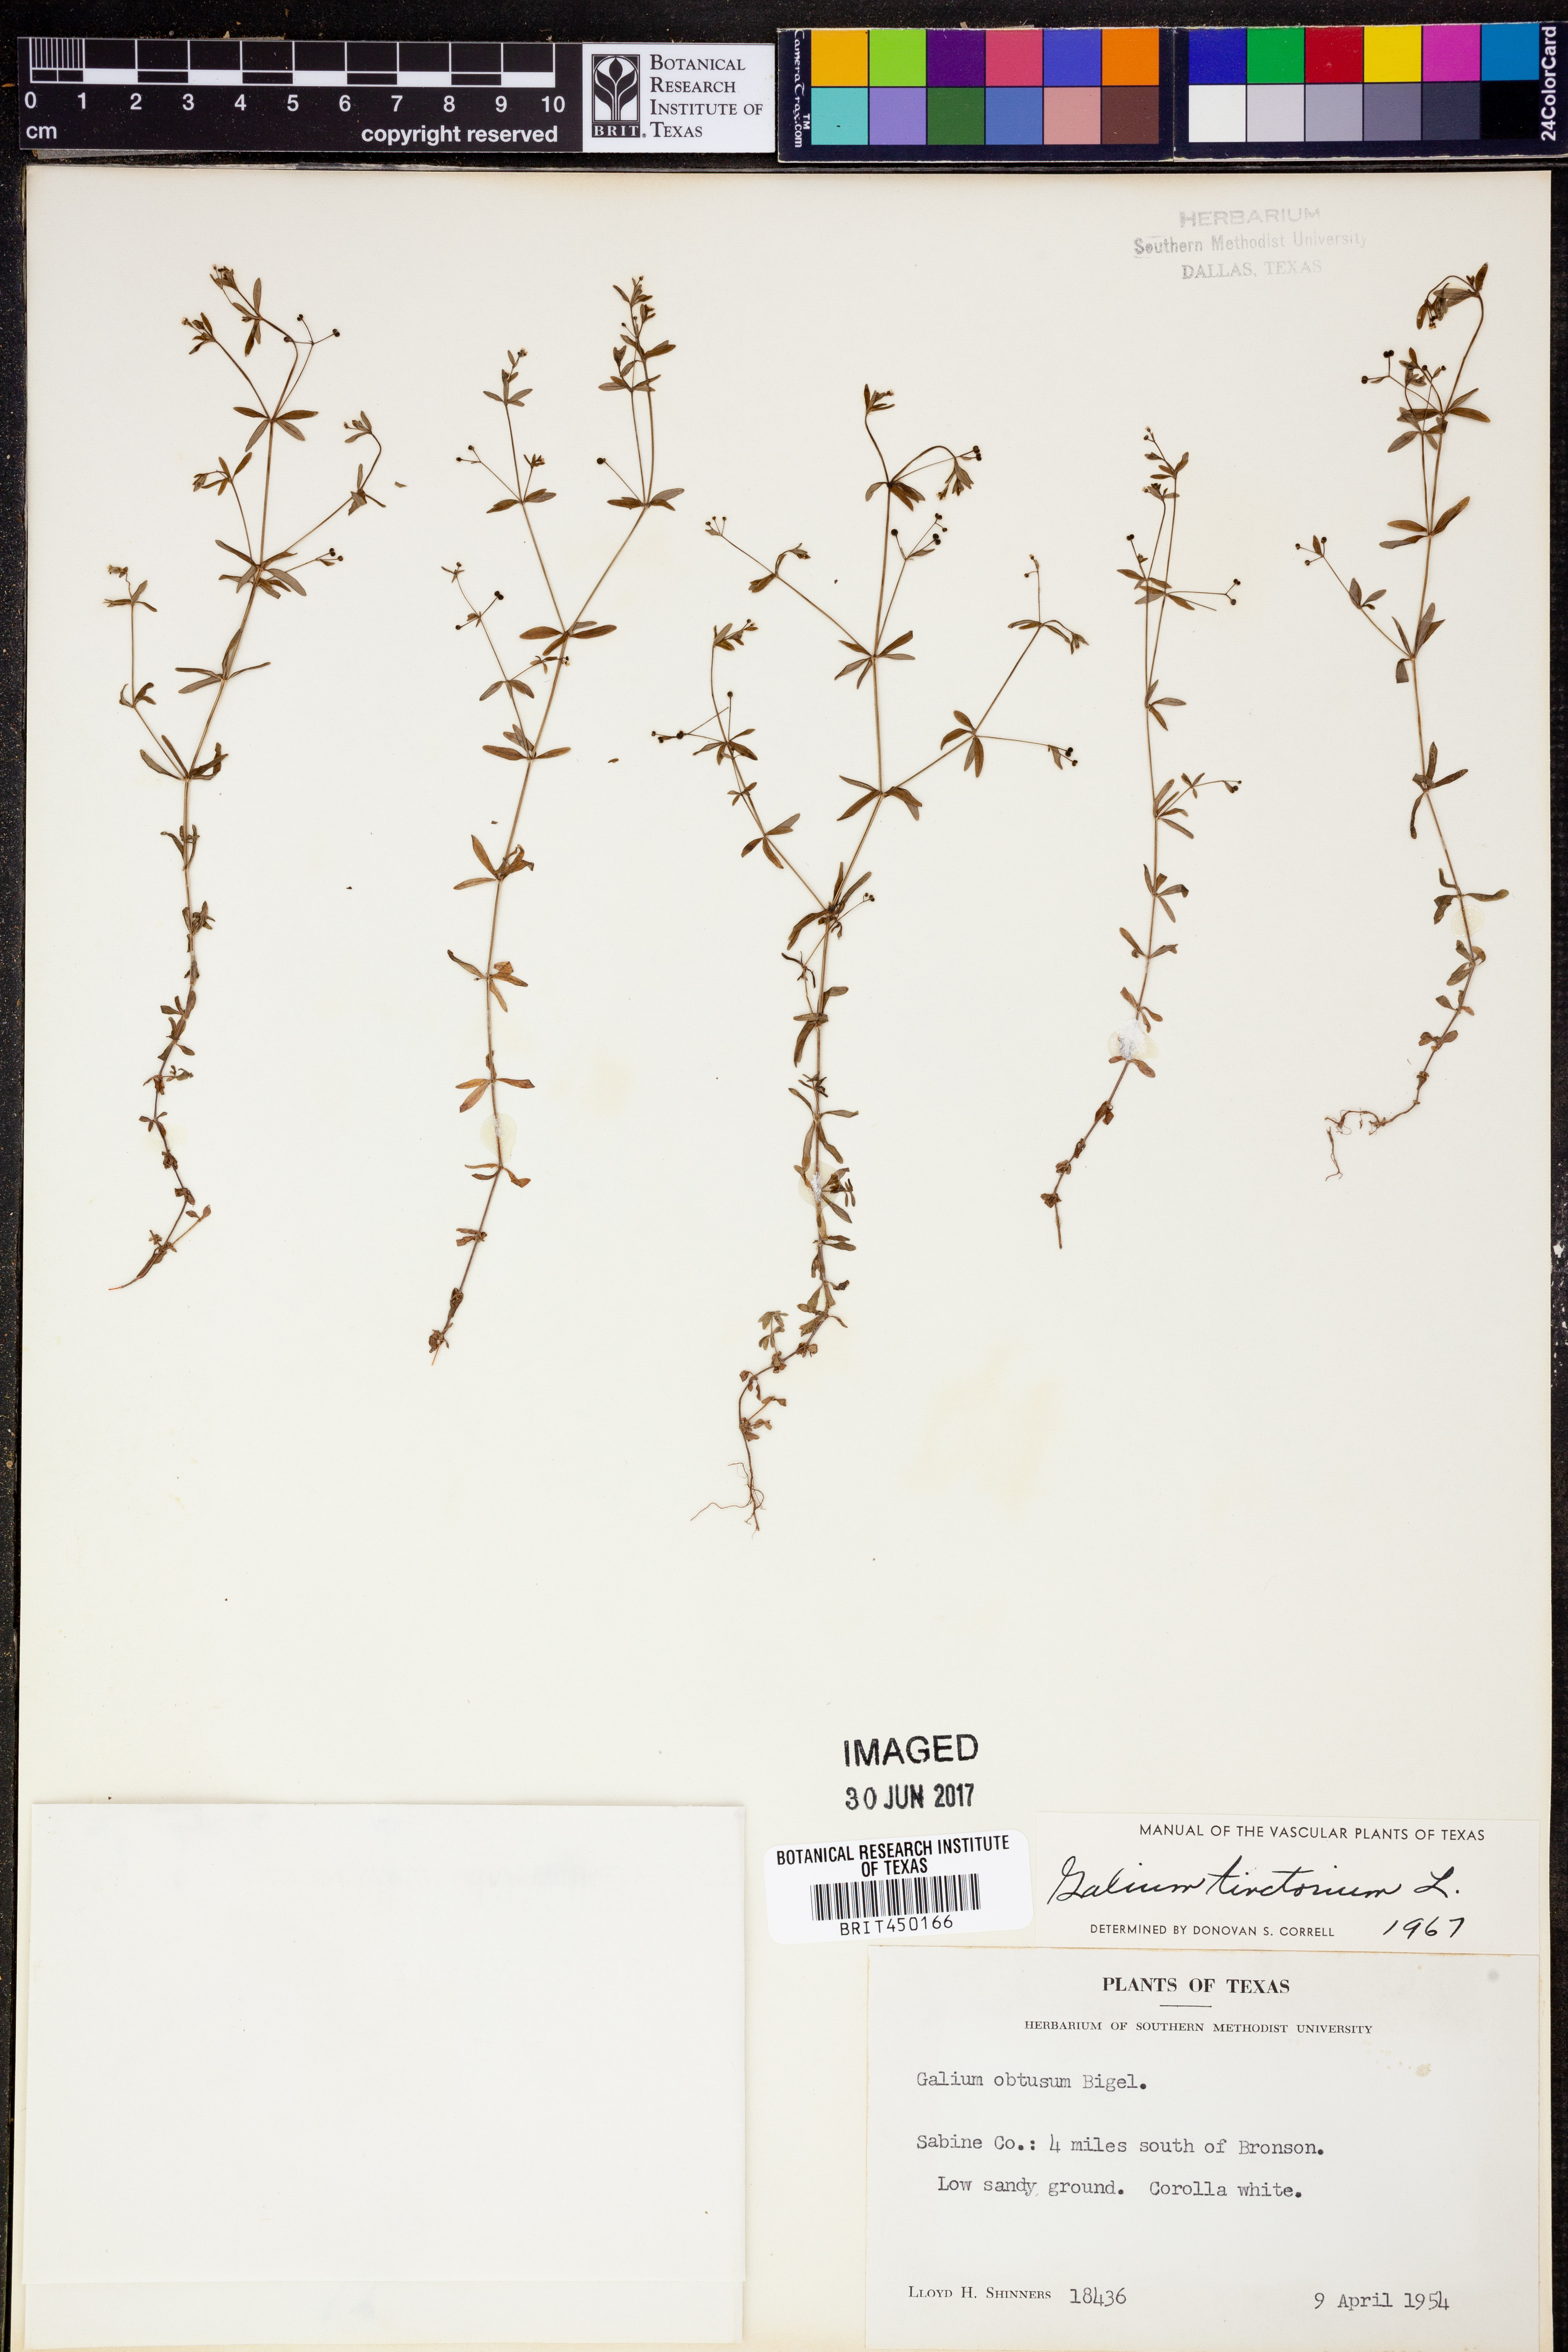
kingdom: Plantae
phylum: Tracheophyta
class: Magnoliopsida
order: Gentianales
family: Rubiaceae
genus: Asperula
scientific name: Asperula tinctoria
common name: Dyer's woodruff
